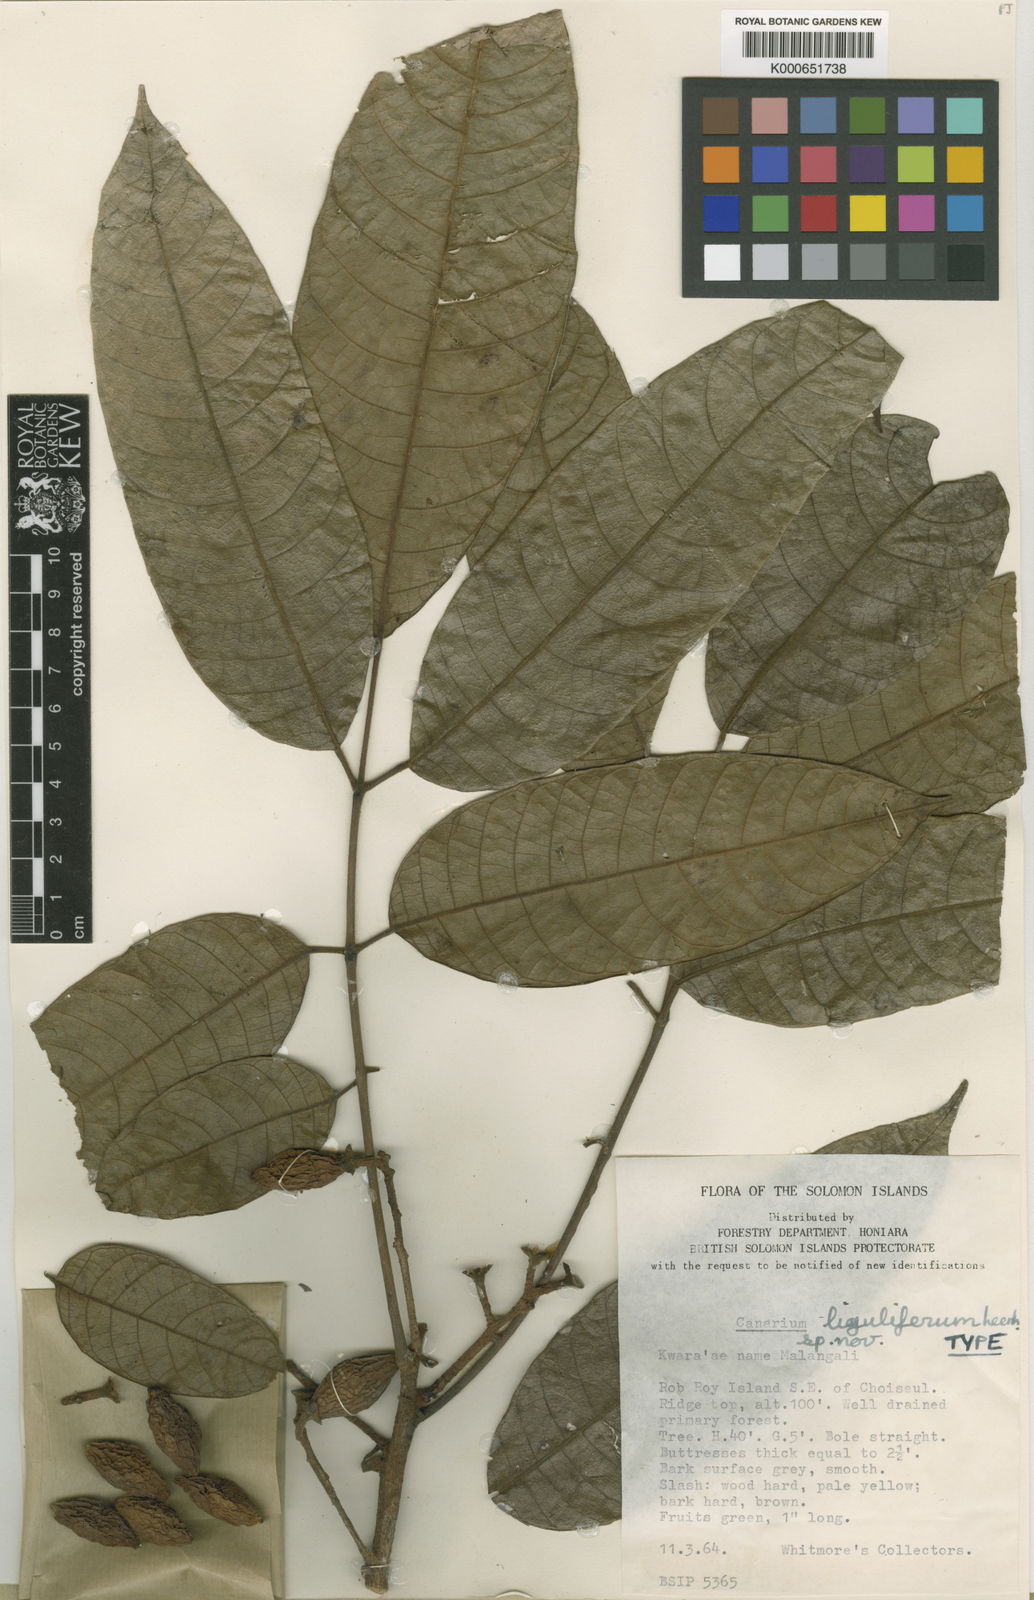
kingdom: Plantae
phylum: Tracheophyta
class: Magnoliopsida
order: Sapindales
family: Burseraceae
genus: Canarium
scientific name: Canarium liguliferum
